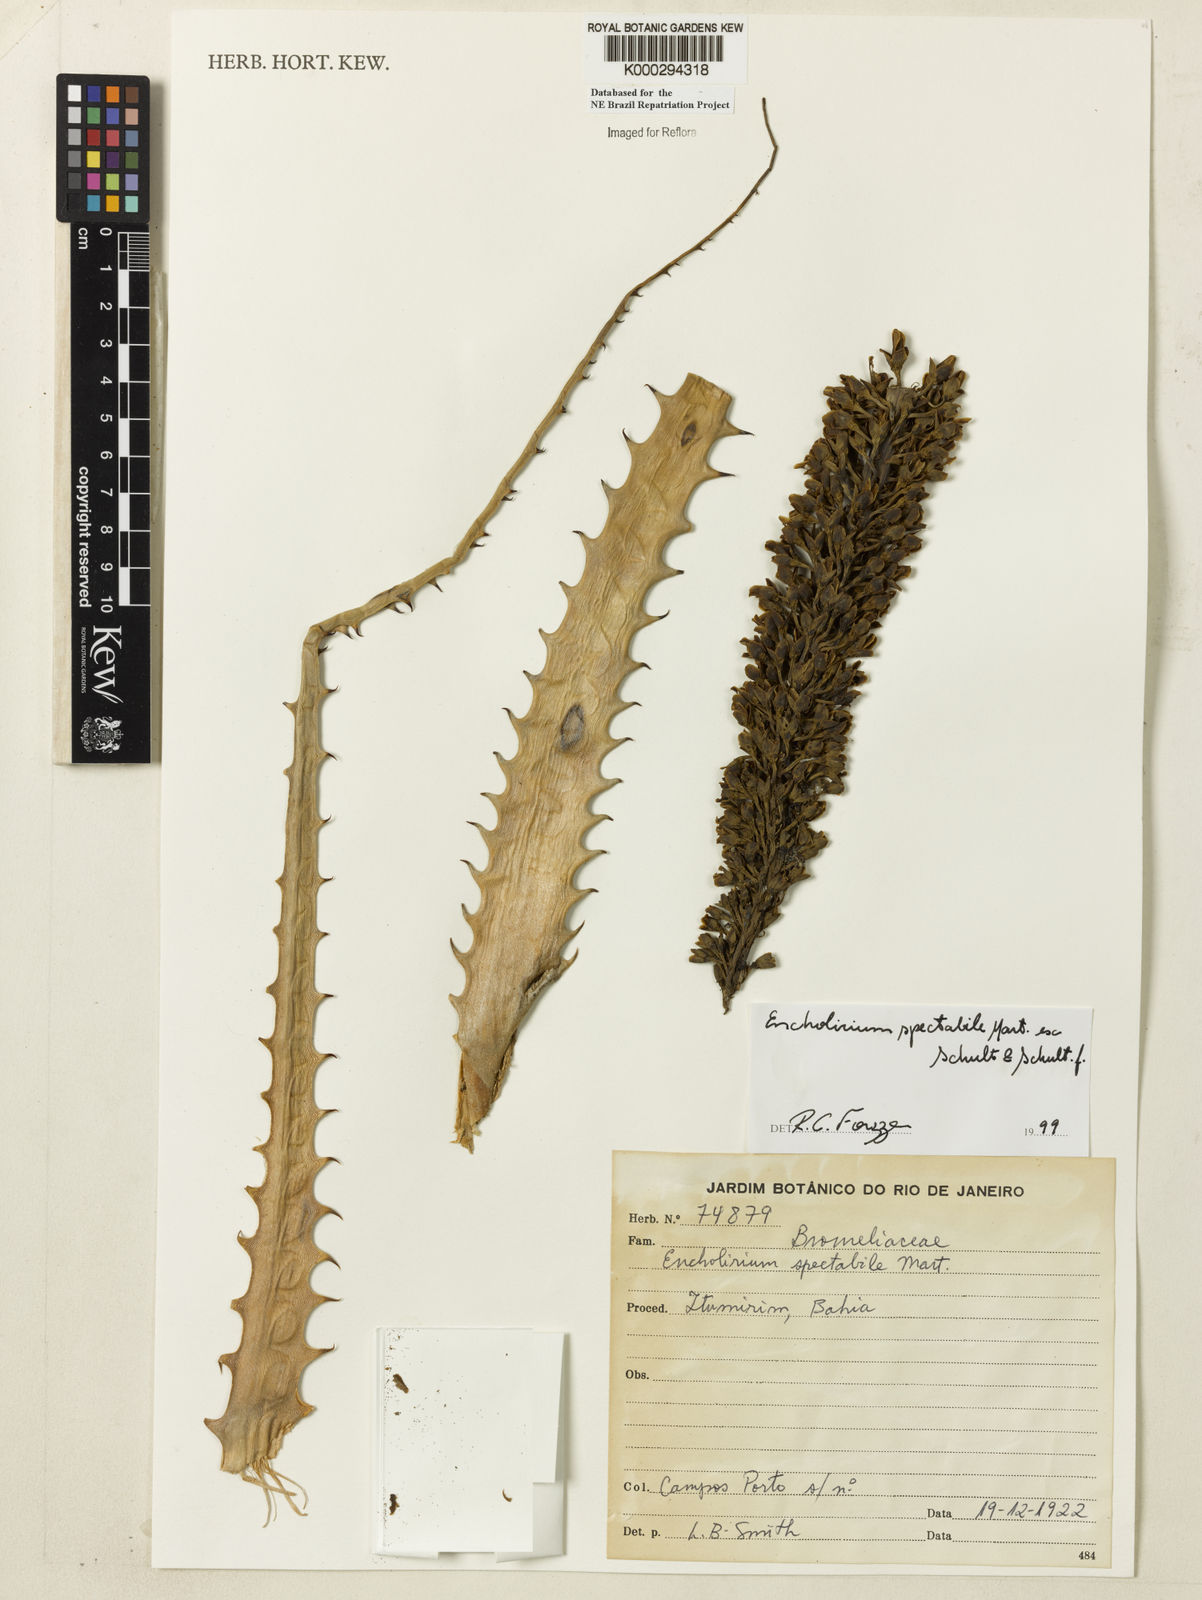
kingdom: Plantae
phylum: Tracheophyta
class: Liliopsida
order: Poales
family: Bromeliaceae
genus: Encholirium
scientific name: Encholirium spectabile
